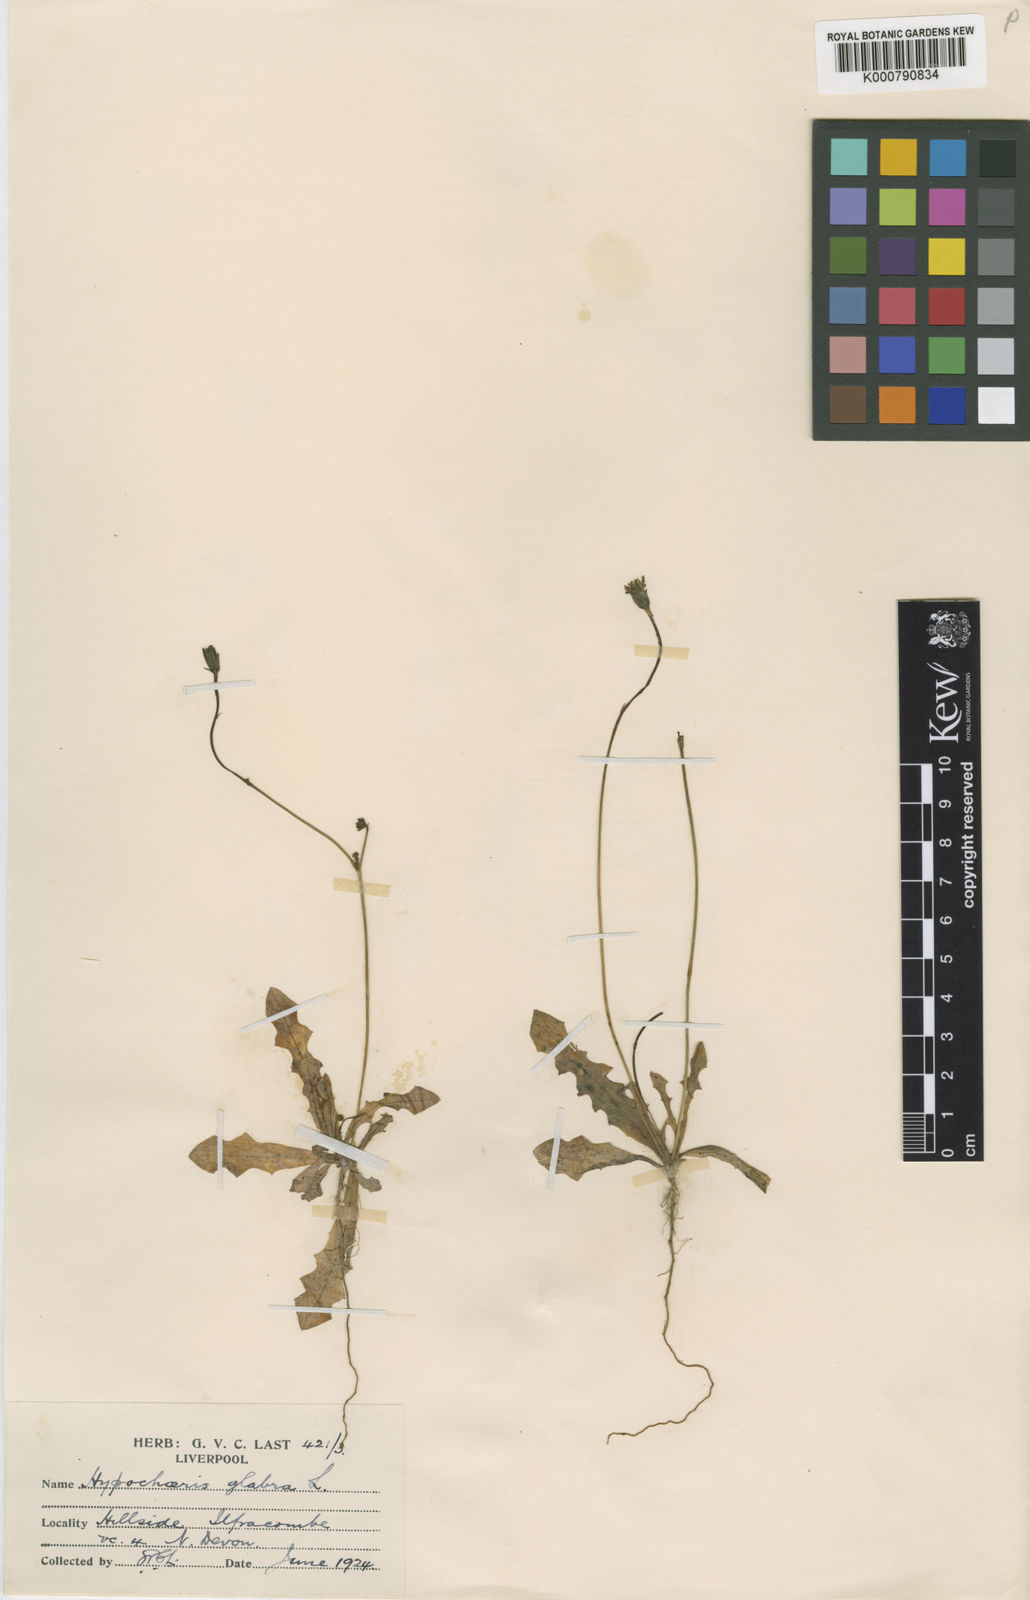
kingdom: Plantae
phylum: Tracheophyta
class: Magnoliopsida
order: Asterales
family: Asteraceae
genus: Hypochaeris
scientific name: Hypochaeris glabra
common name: Smooth catsear
